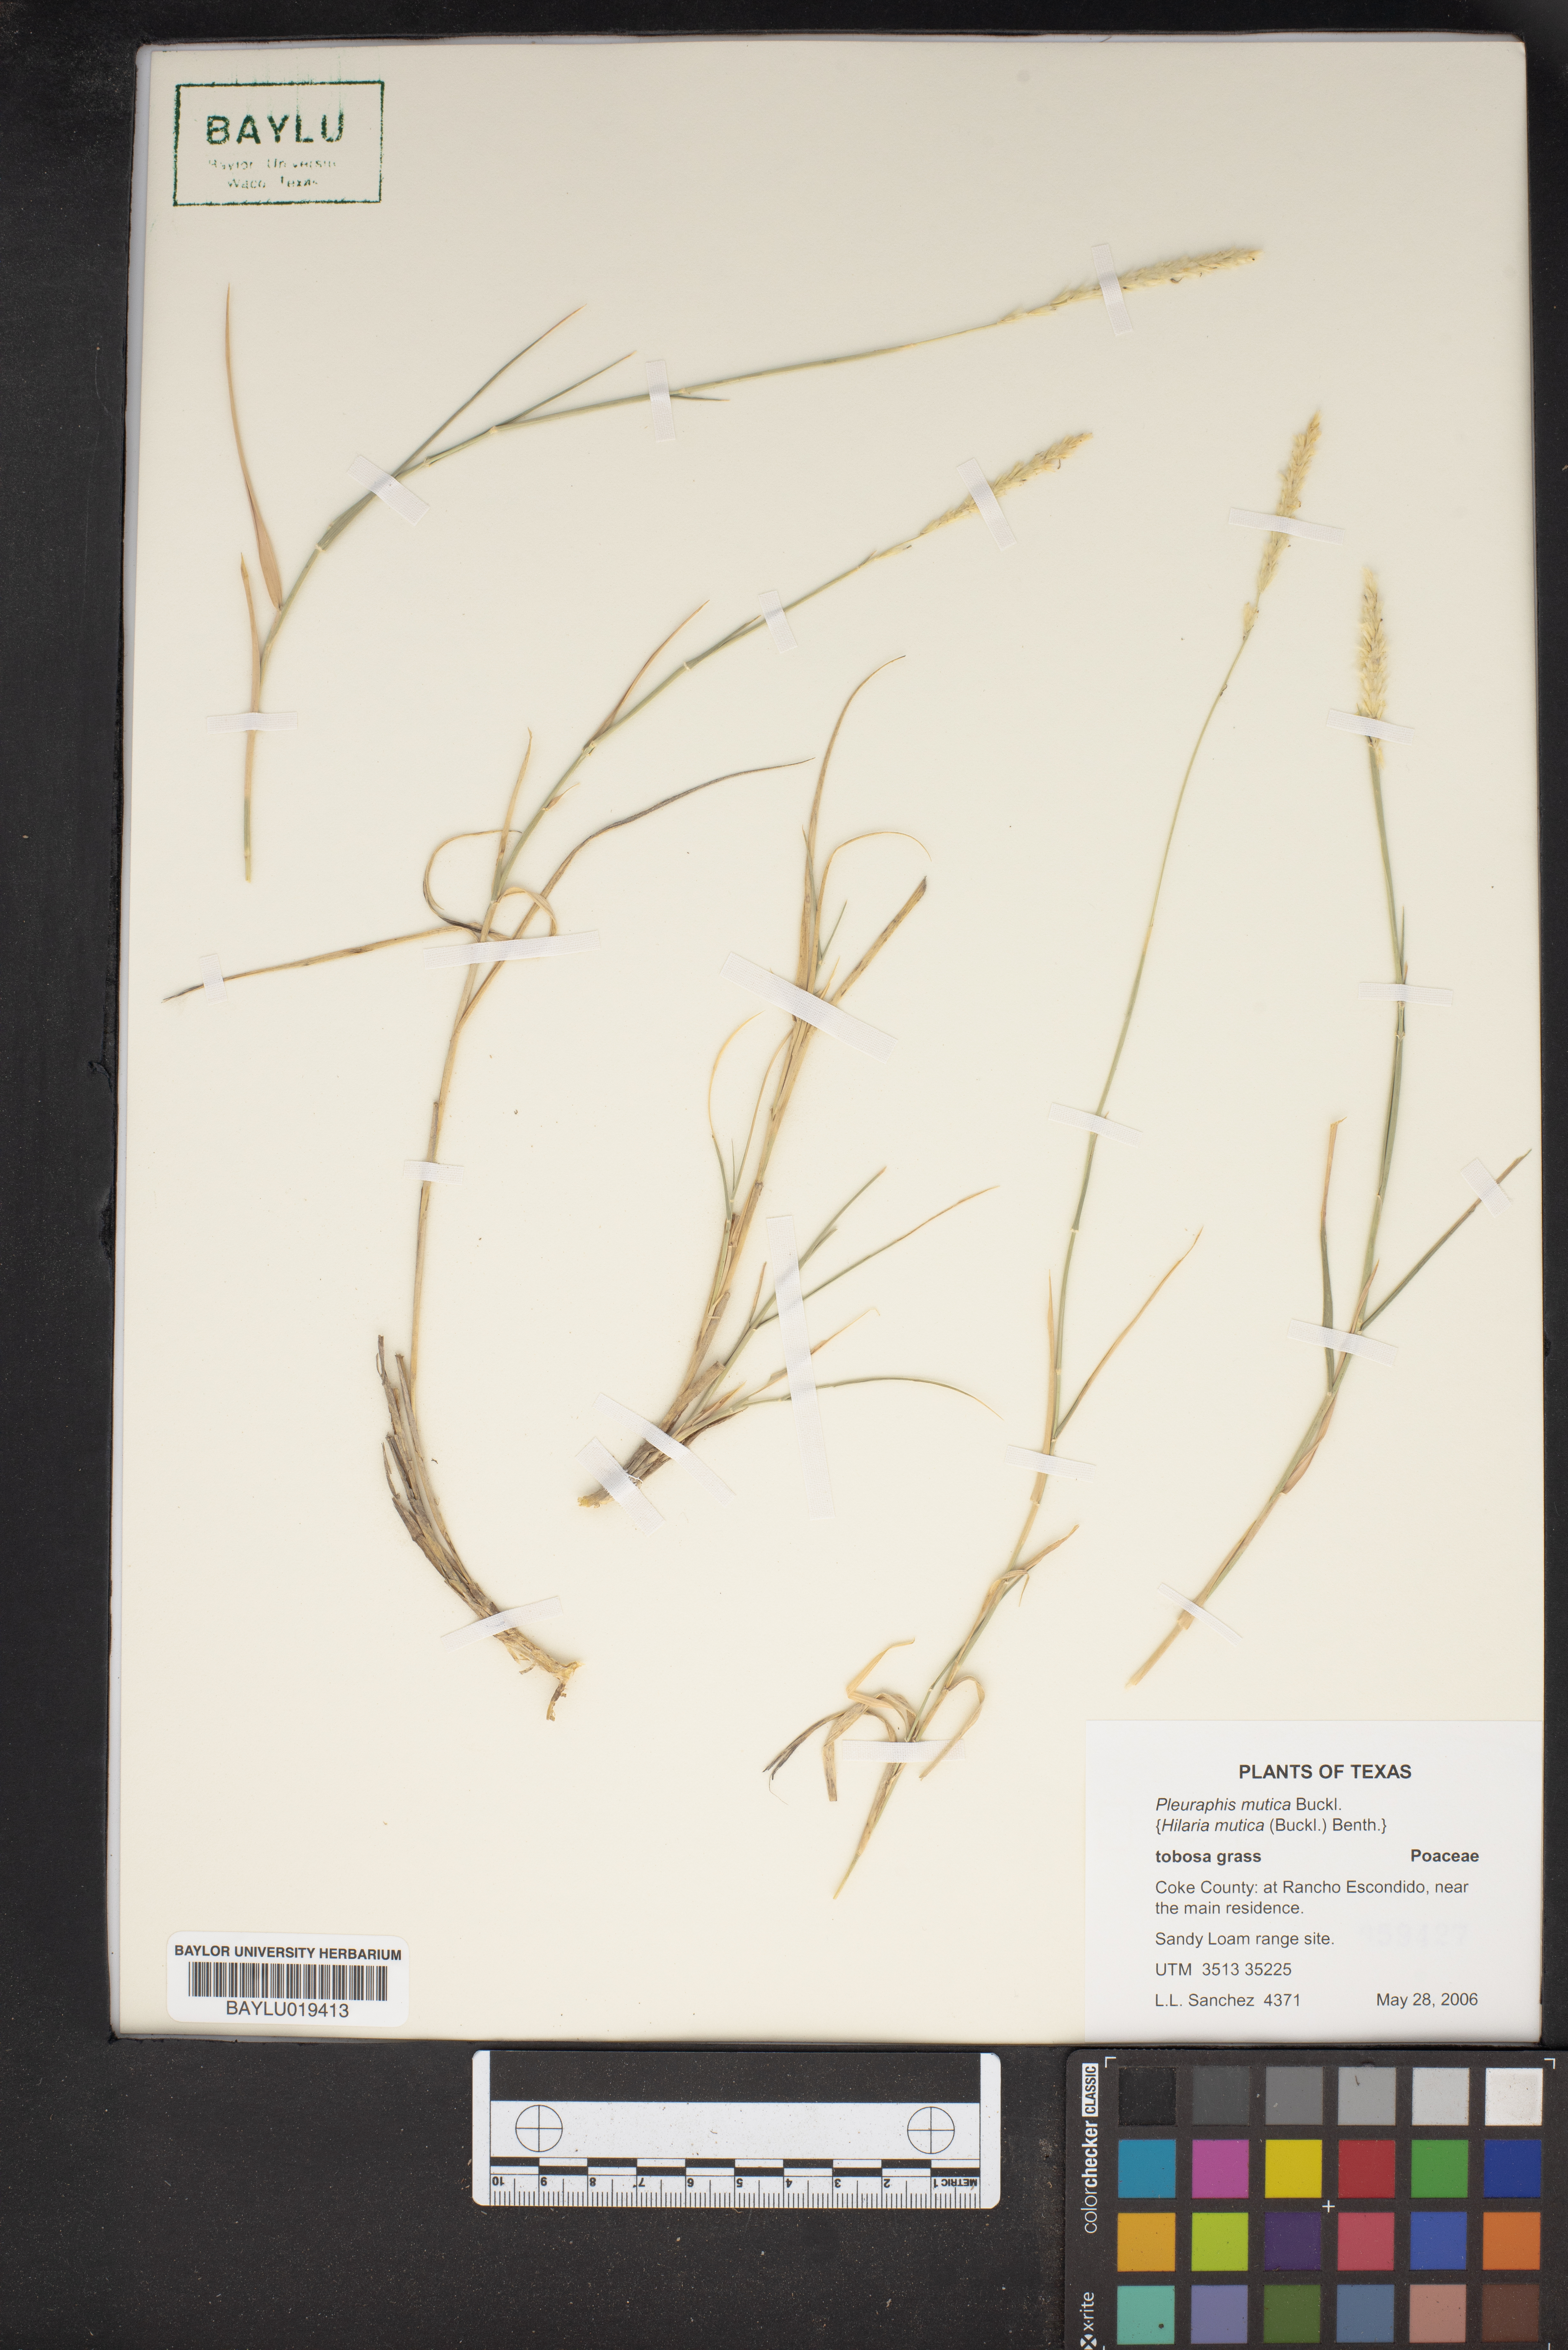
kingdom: Plantae
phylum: Tracheophyta
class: Liliopsida
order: Poales
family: Poaceae
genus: Hilaria
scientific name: Hilaria mutica
